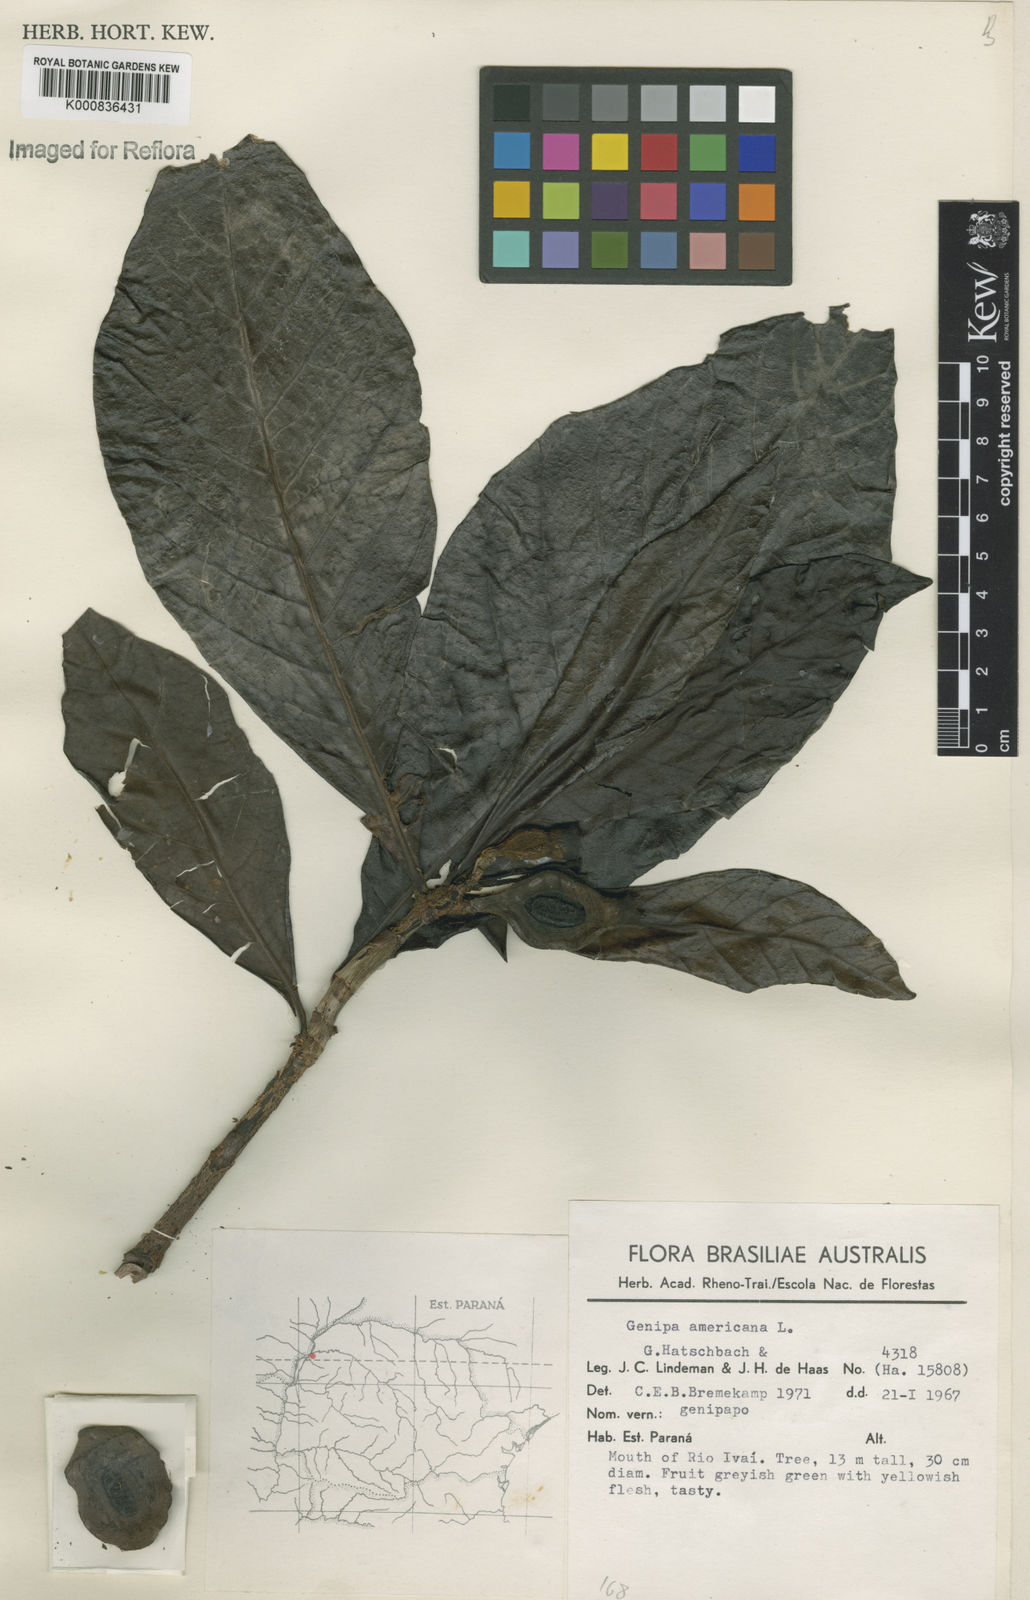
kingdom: Plantae
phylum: Tracheophyta
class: Magnoliopsida
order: Gentianales
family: Rubiaceae
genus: Genipa
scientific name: Genipa americana
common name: Genipap
